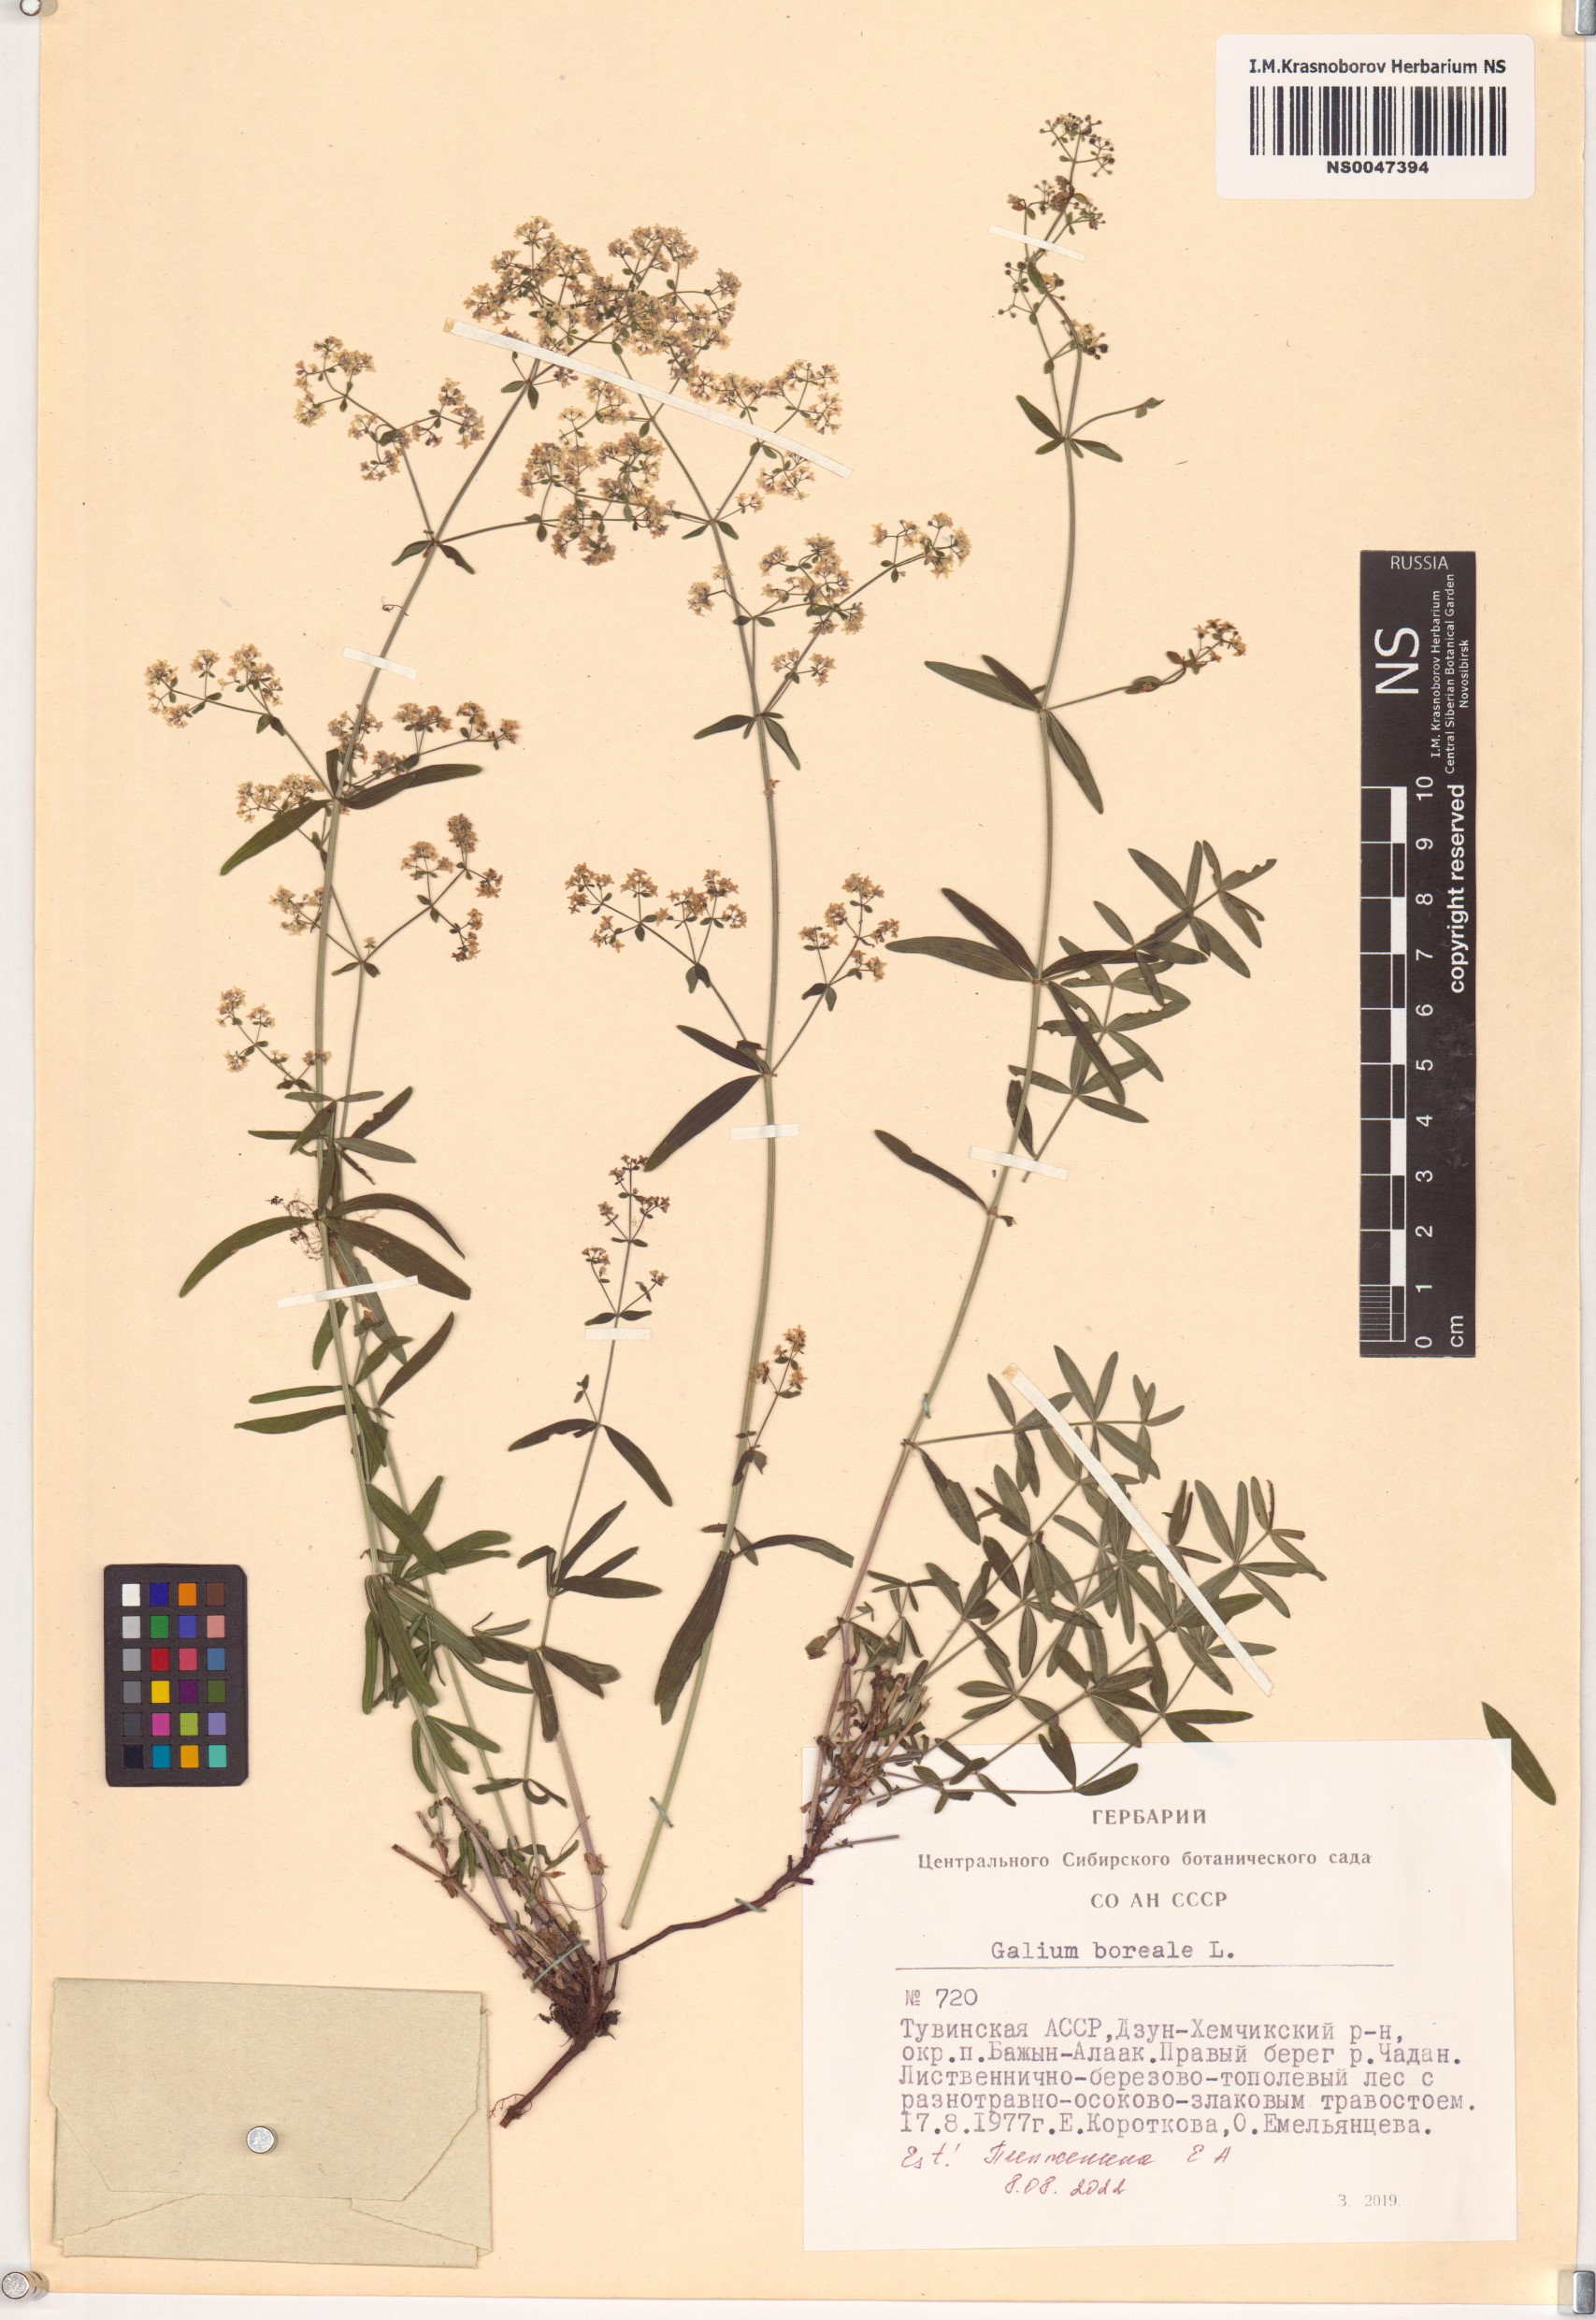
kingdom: Plantae
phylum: Tracheophyta
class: Magnoliopsida
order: Gentianales
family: Rubiaceae
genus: Galium
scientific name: Galium boreale
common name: Northern bedstraw
